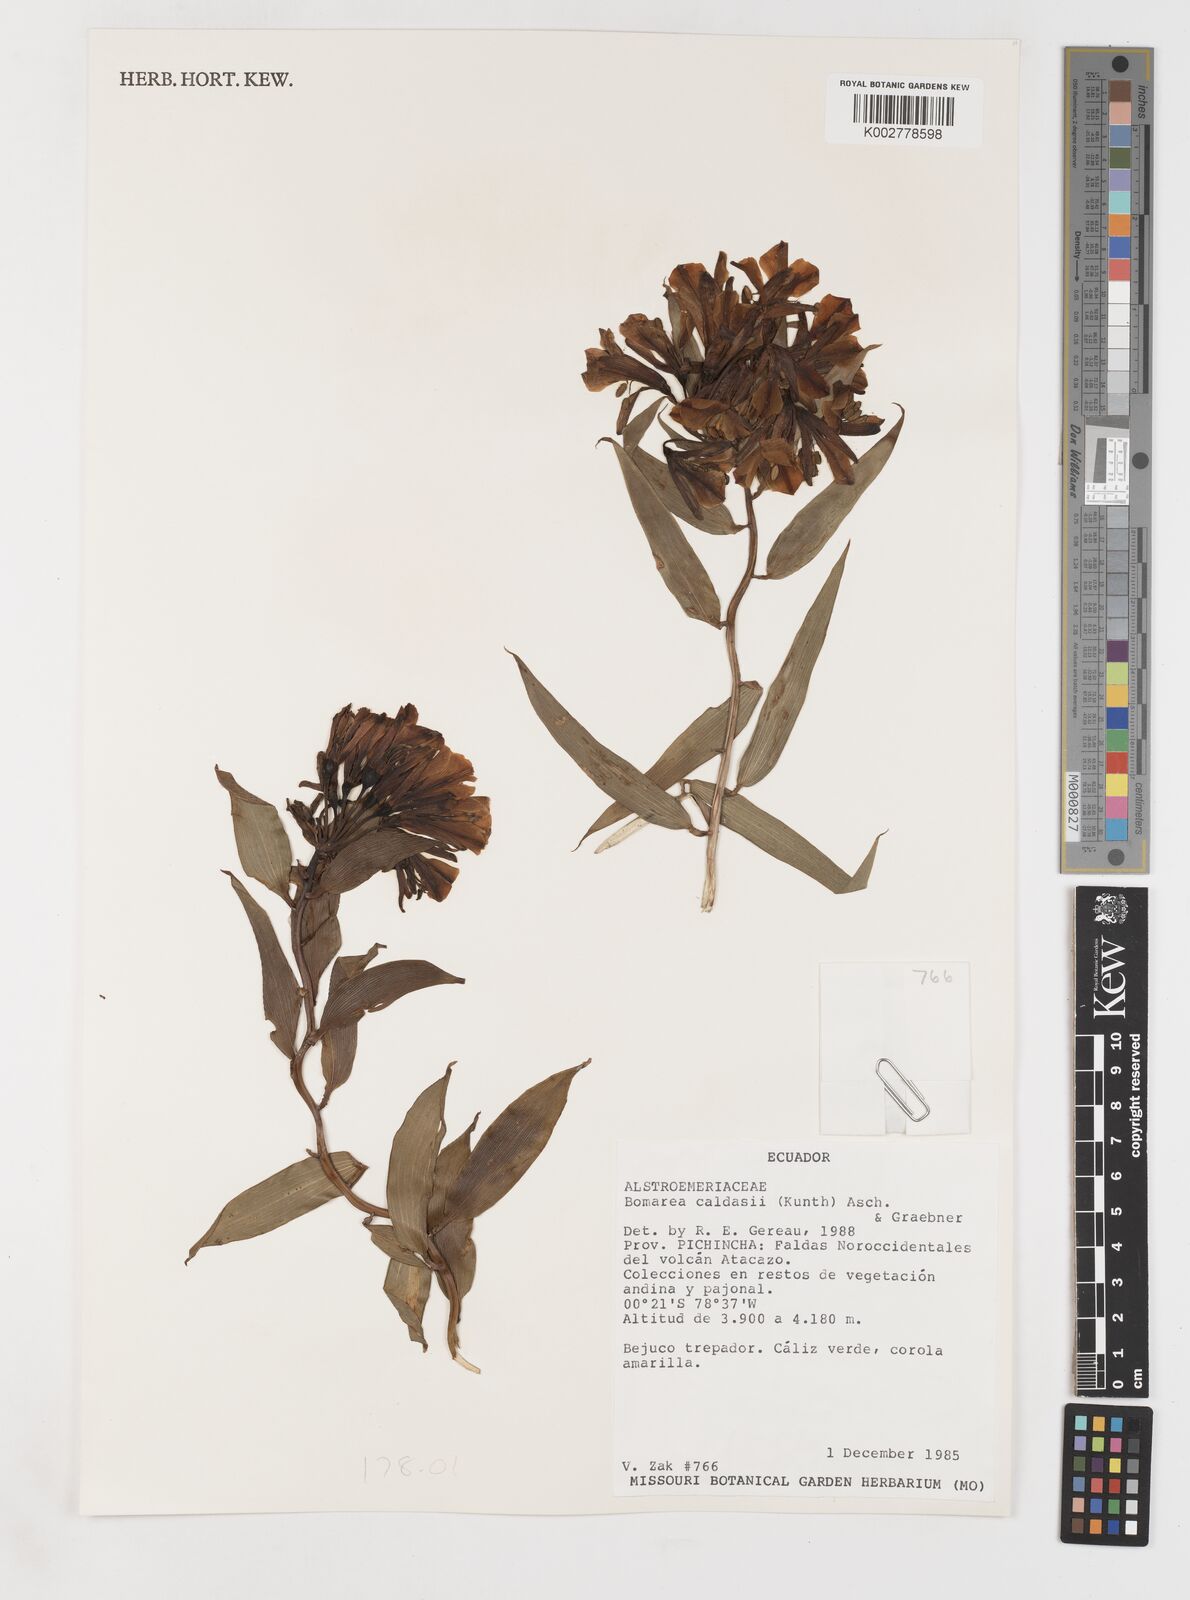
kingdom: Plantae
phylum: Tracheophyta
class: Liliopsida
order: Liliales
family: Alstroemeriaceae
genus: Bomarea
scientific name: Bomarea multiflora
